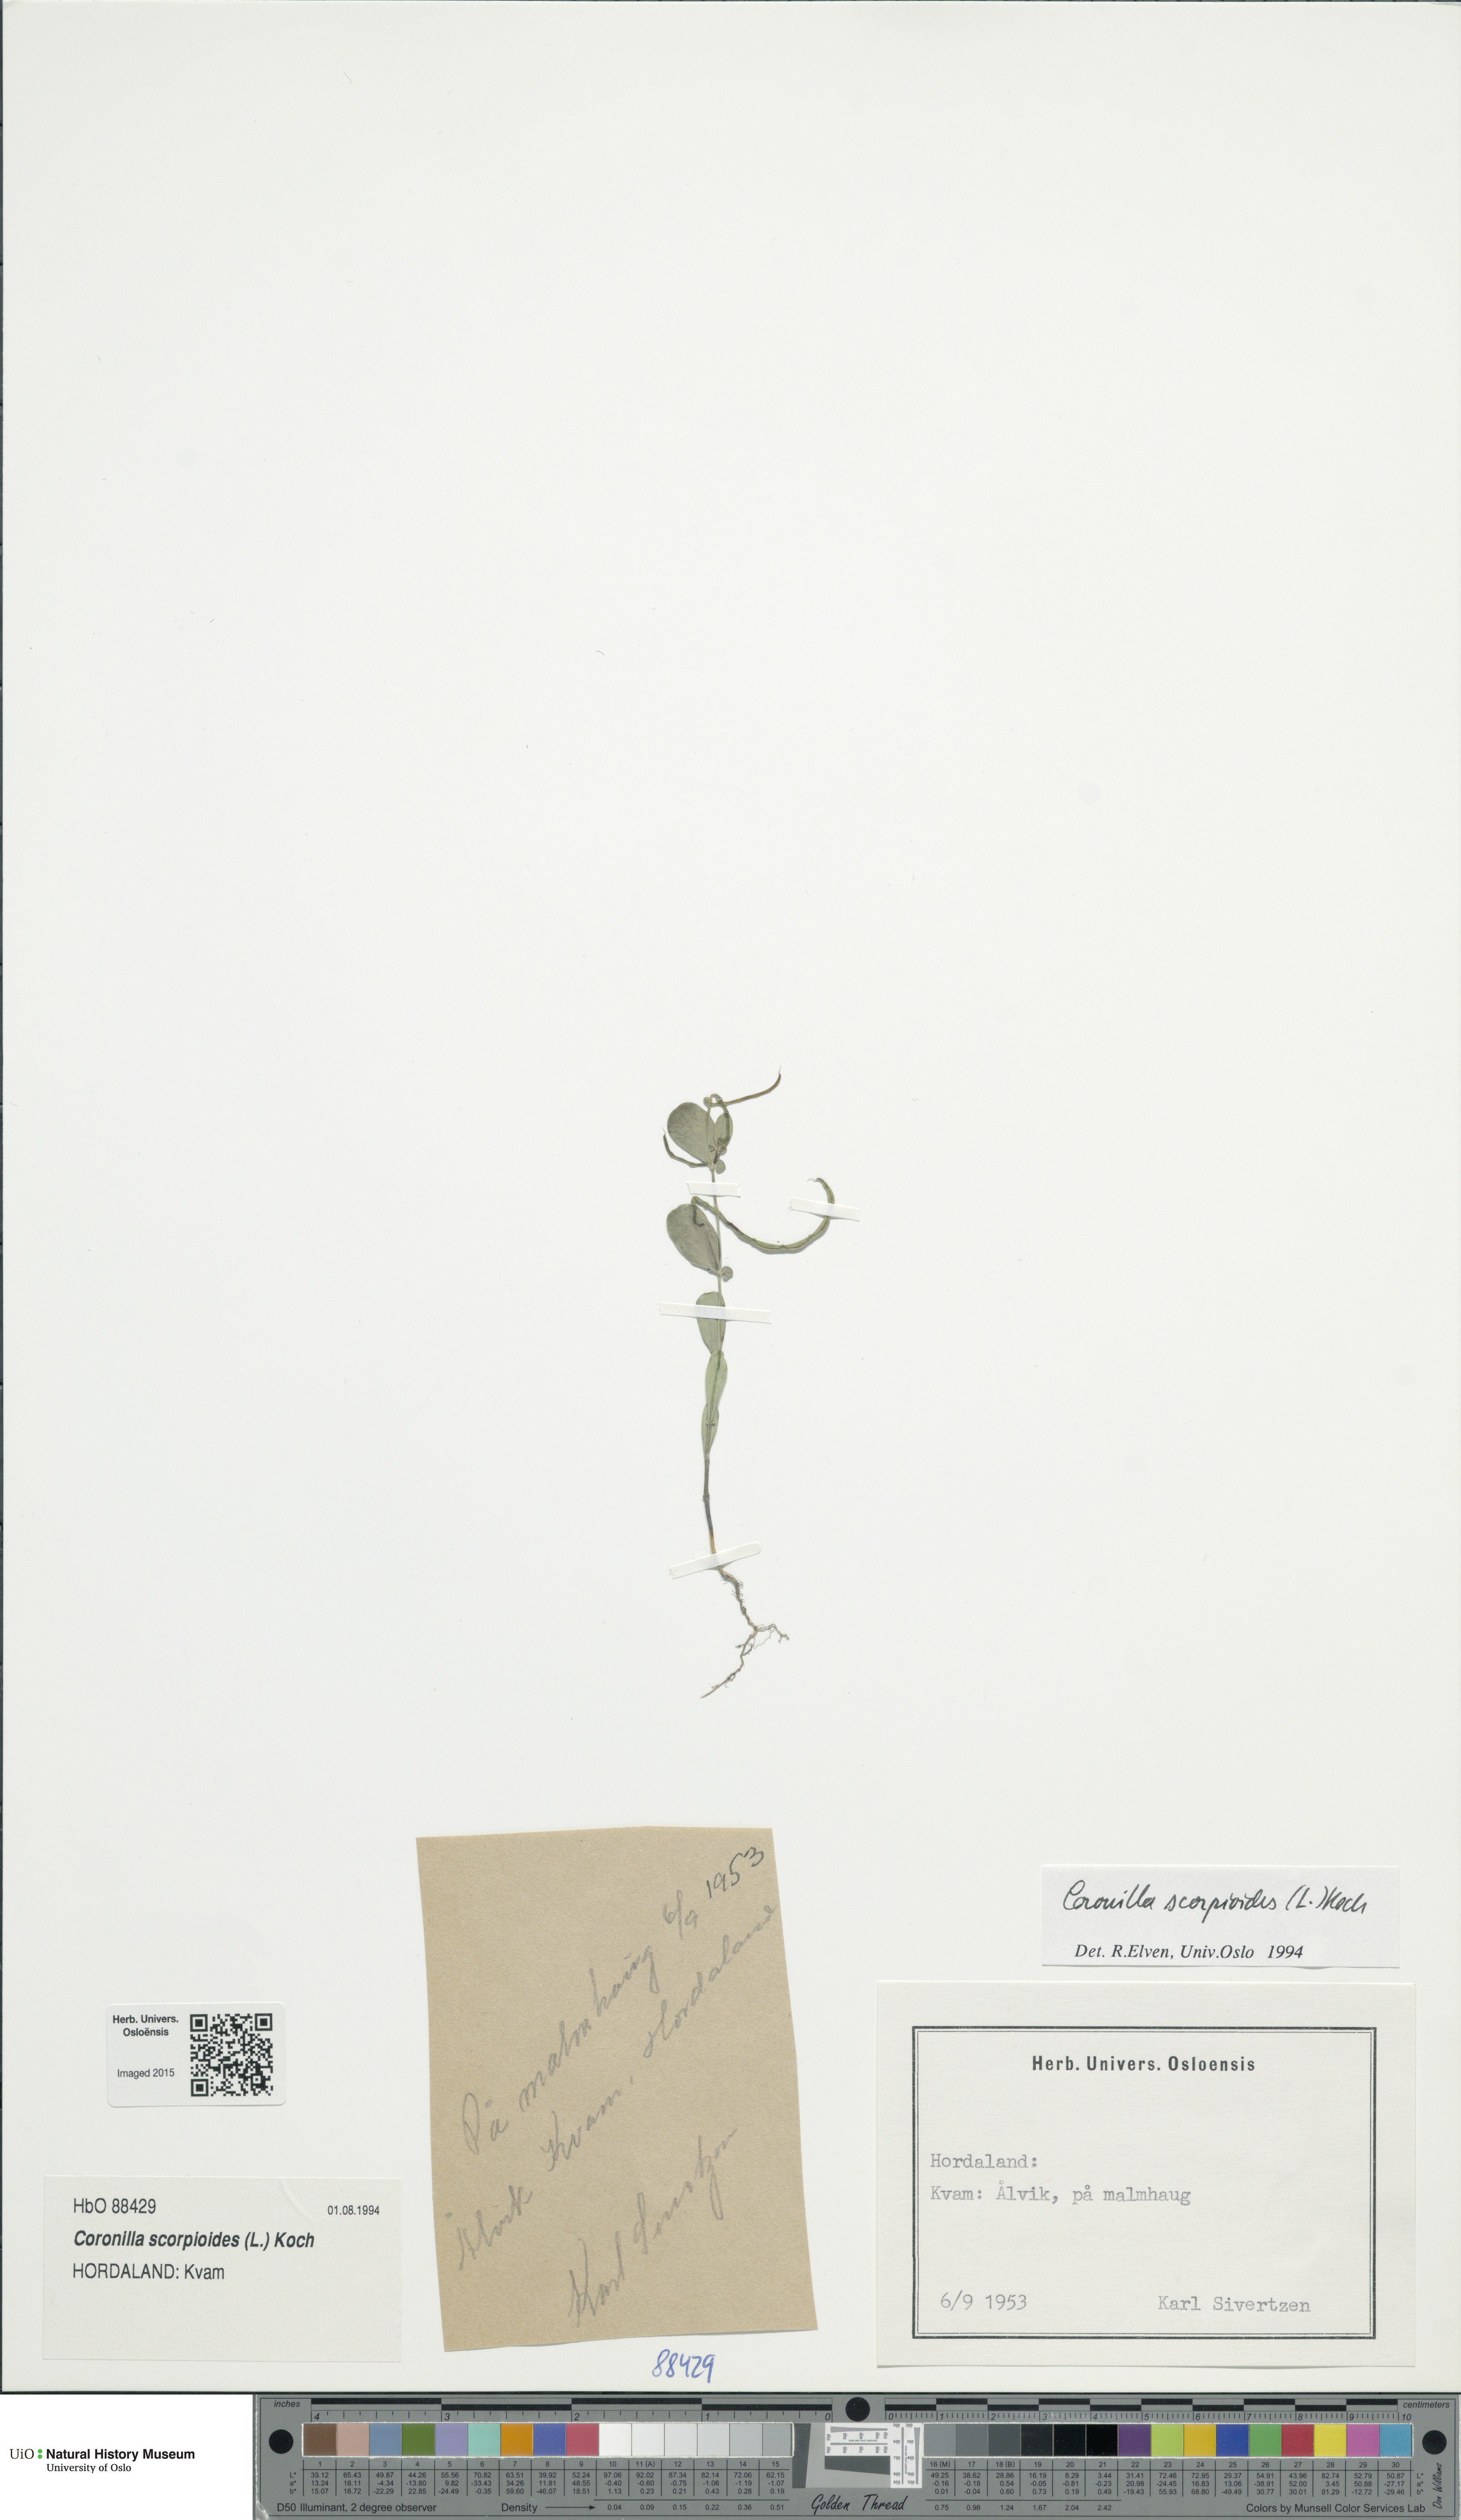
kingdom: Plantae
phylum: Tracheophyta
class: Magnoliopsida
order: Fabales
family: Fabaceae
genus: Coronilla
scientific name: Coronilla scorpioides
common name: Annual scorpion-vetch
